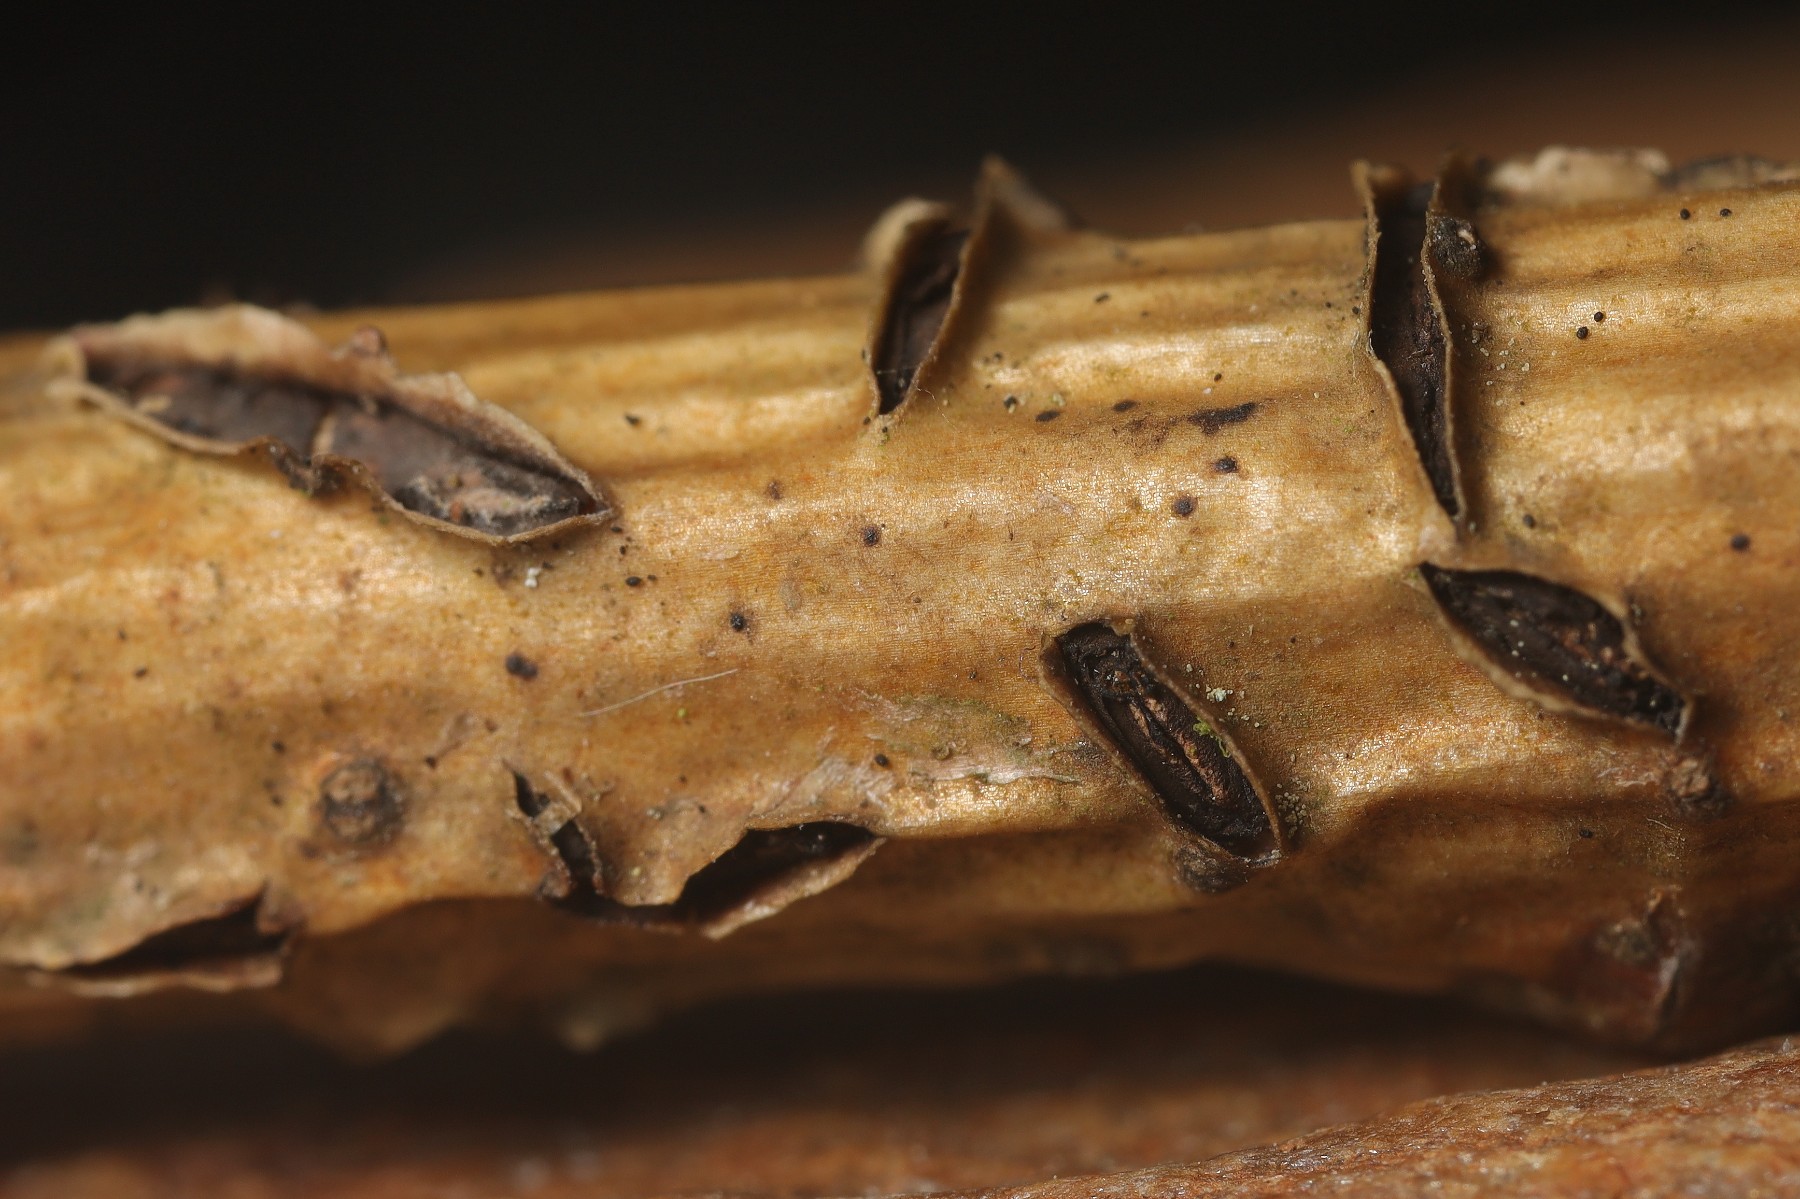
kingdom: Fungi
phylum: Ascomycota
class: Leotiomycetes
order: Rhytismatales
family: Rhytismataceae
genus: Colpoma
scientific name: Colpoma quercinum
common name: ege-sprækkeskive
